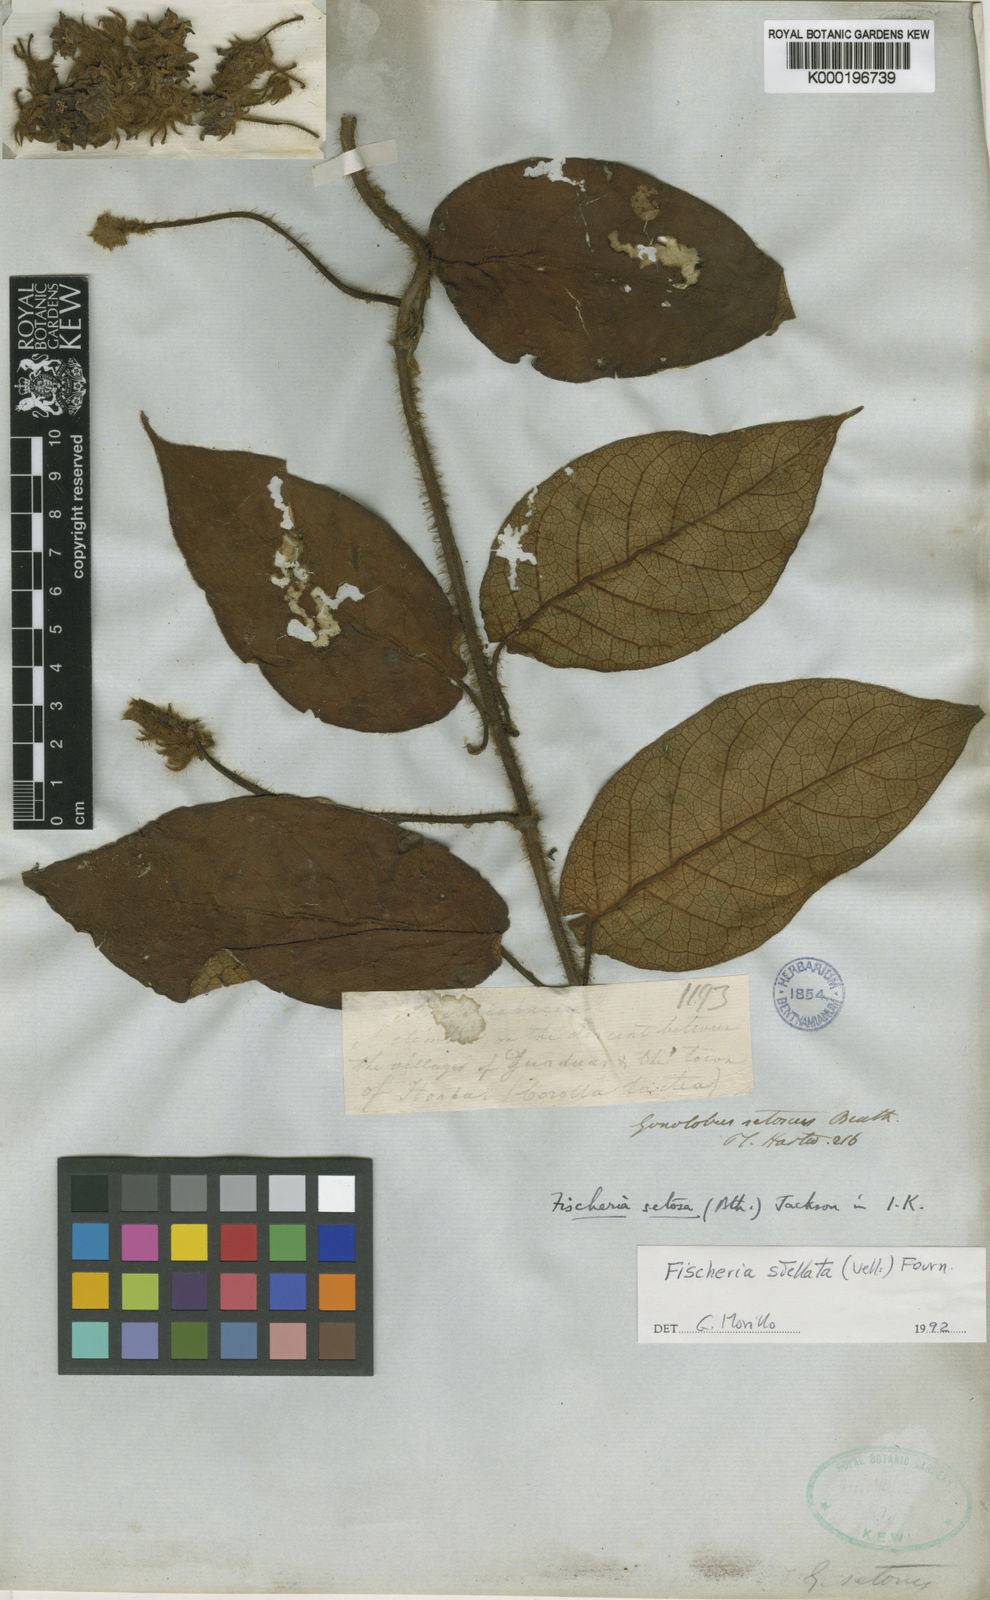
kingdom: Plantae
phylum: Tracheophyta
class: Magnoliopsida
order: Gentianales
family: Apocynaceae
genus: Fischeria
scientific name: Fischeria stellata
